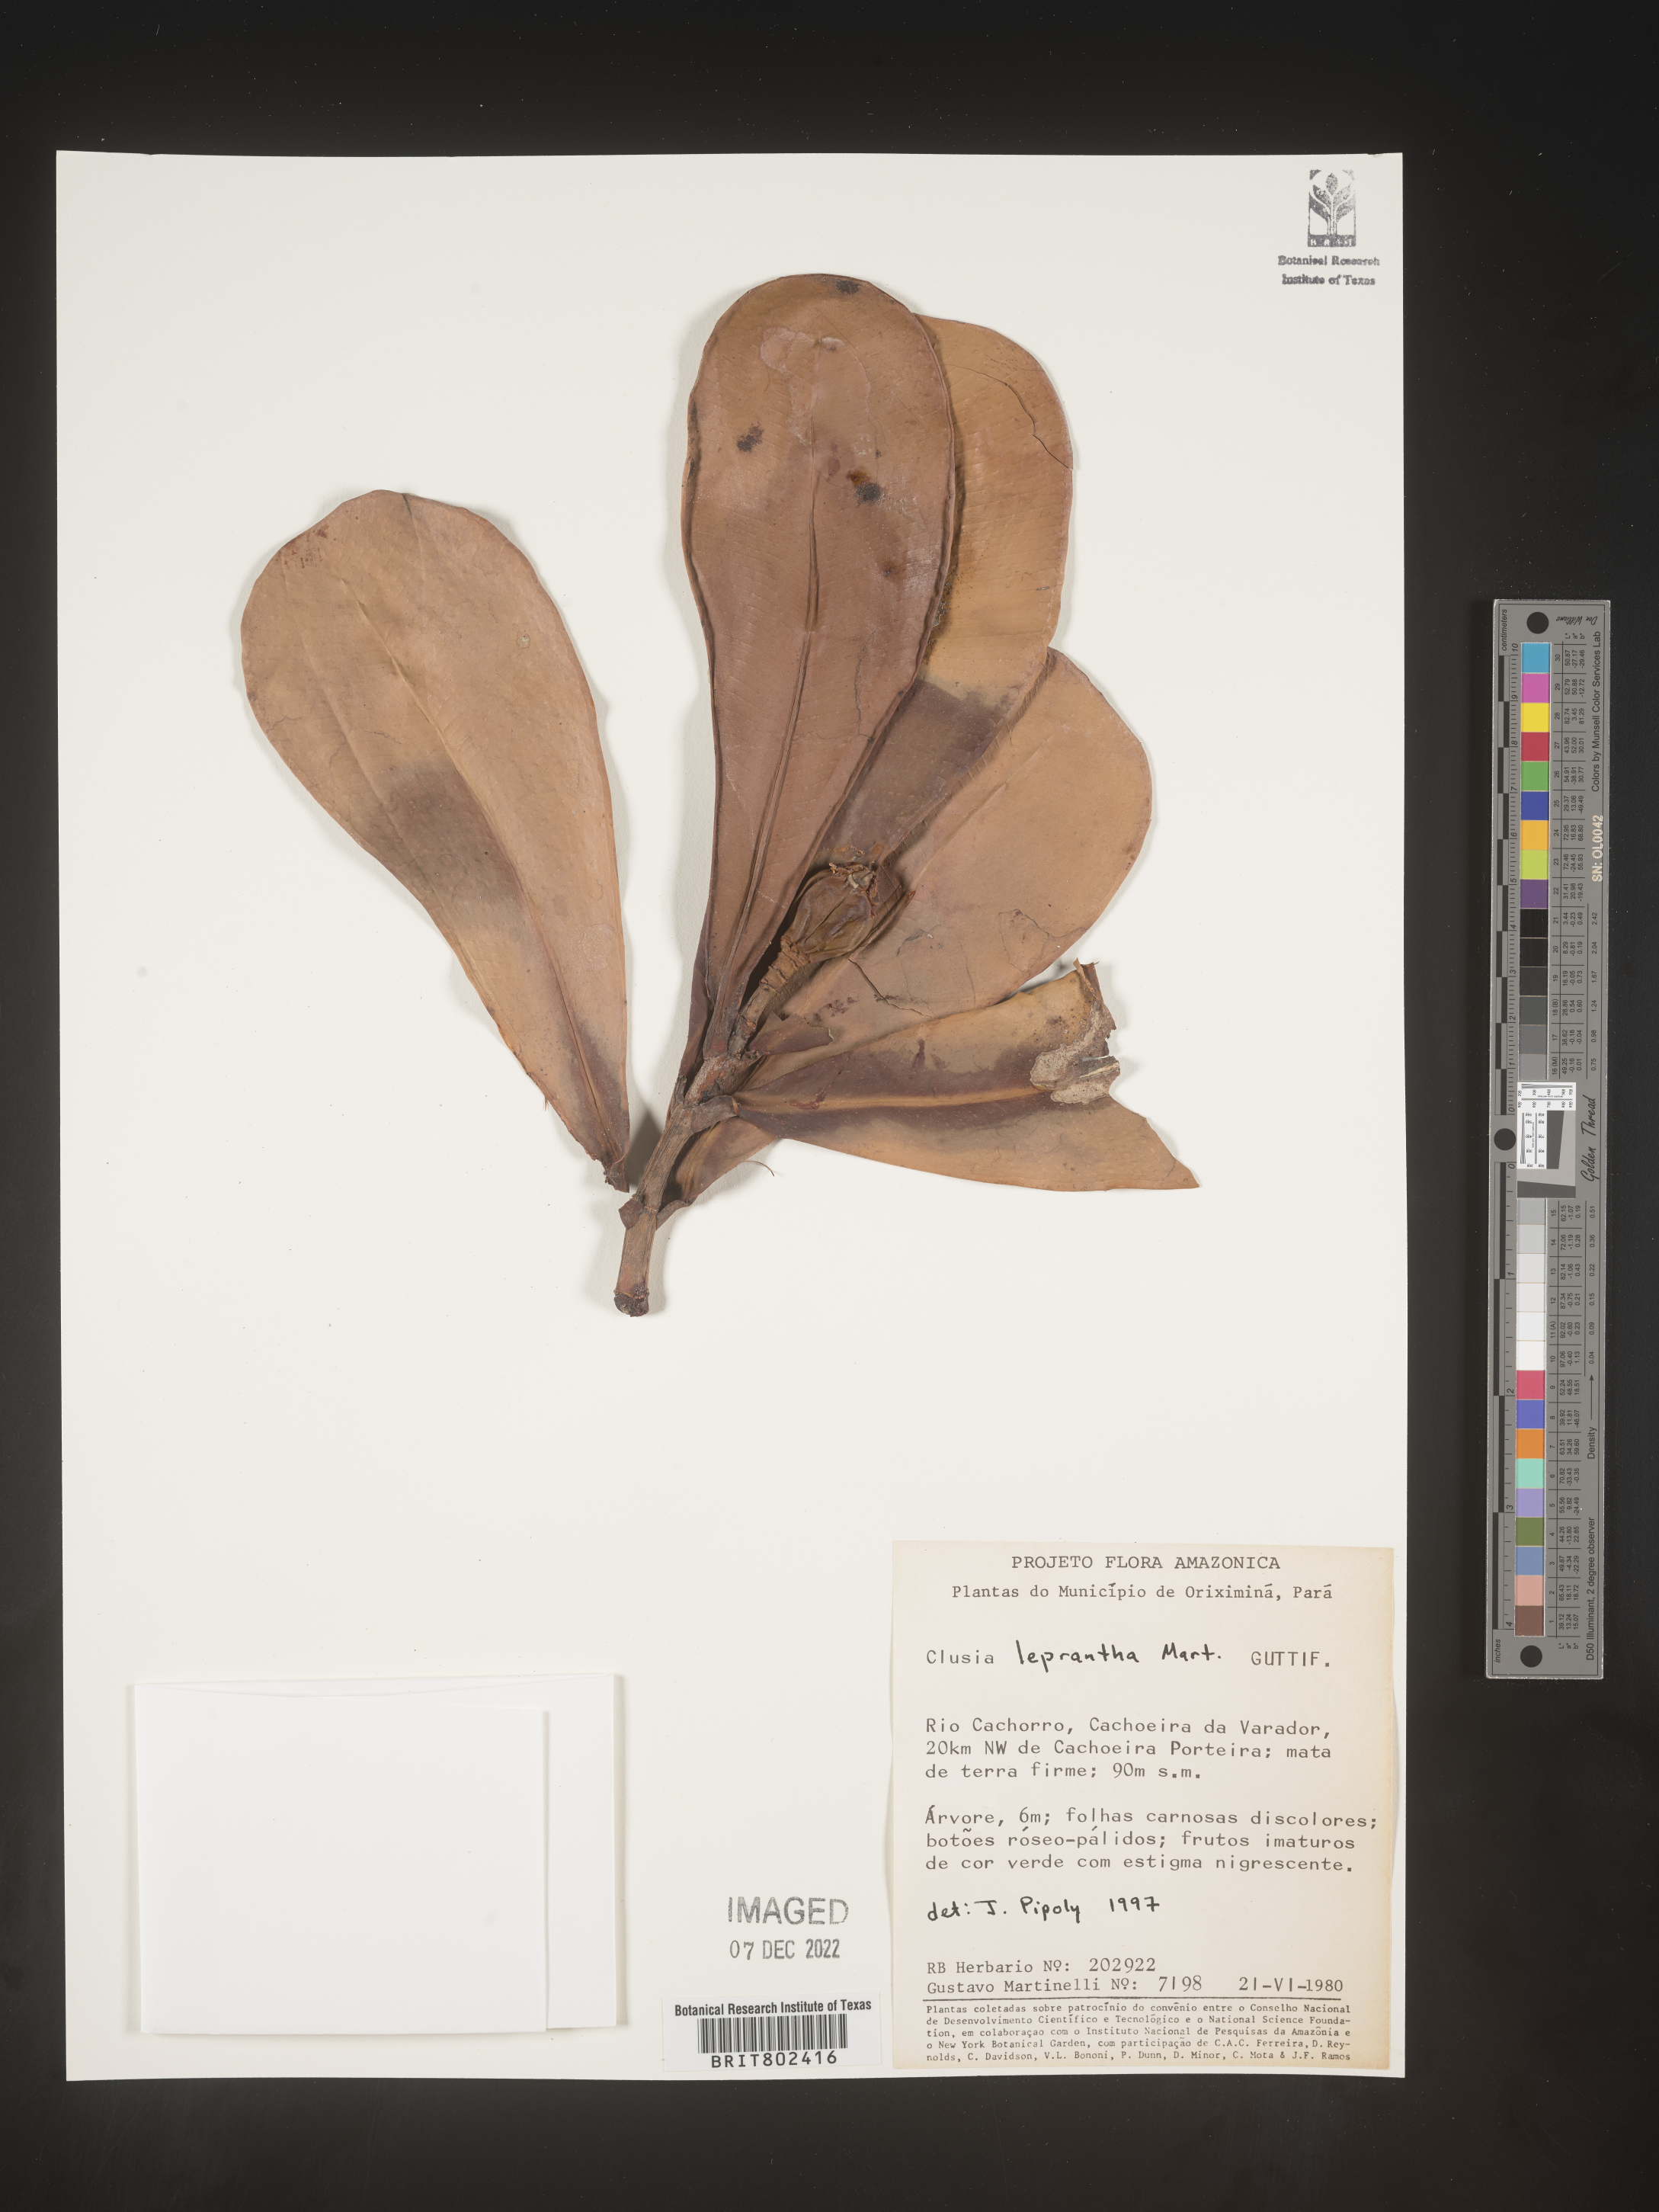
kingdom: Plantae
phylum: Tracheophyta
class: Magnoliopsida
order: Malpighiales
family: Clusiaceae
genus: Clusia
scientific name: Clusia
